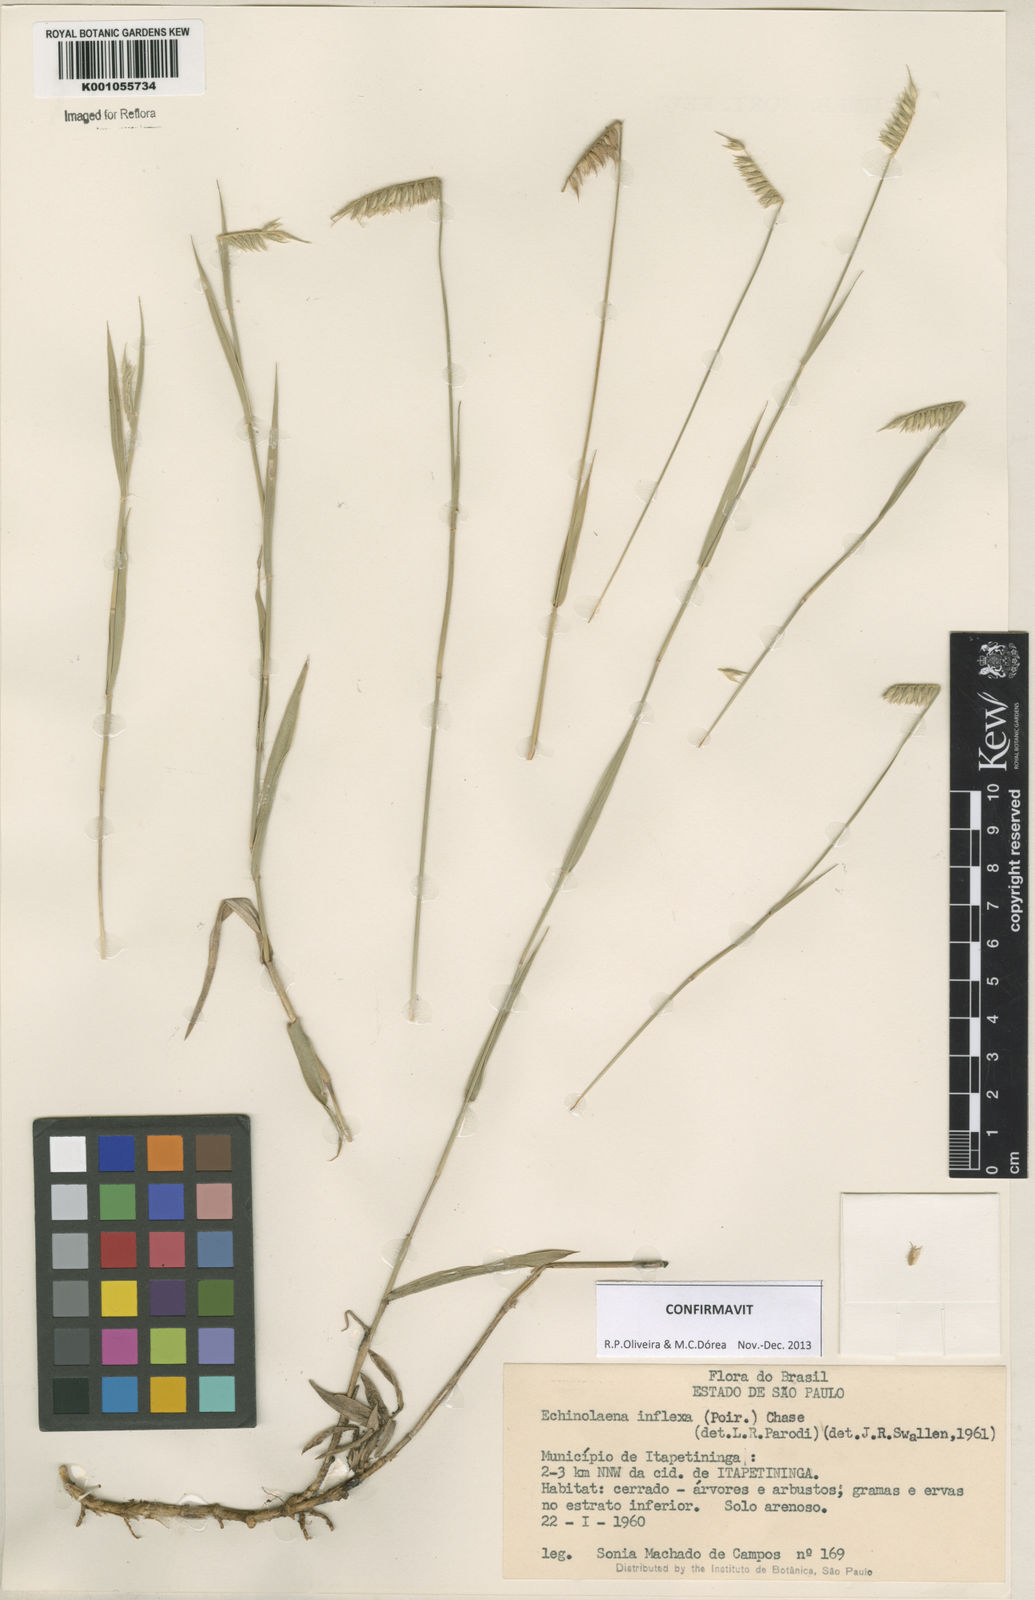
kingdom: Plantae
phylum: Tracheophyta
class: Liliopsida
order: Poales
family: Poaceae
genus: Echinolaena
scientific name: Echinolaena inflexa
